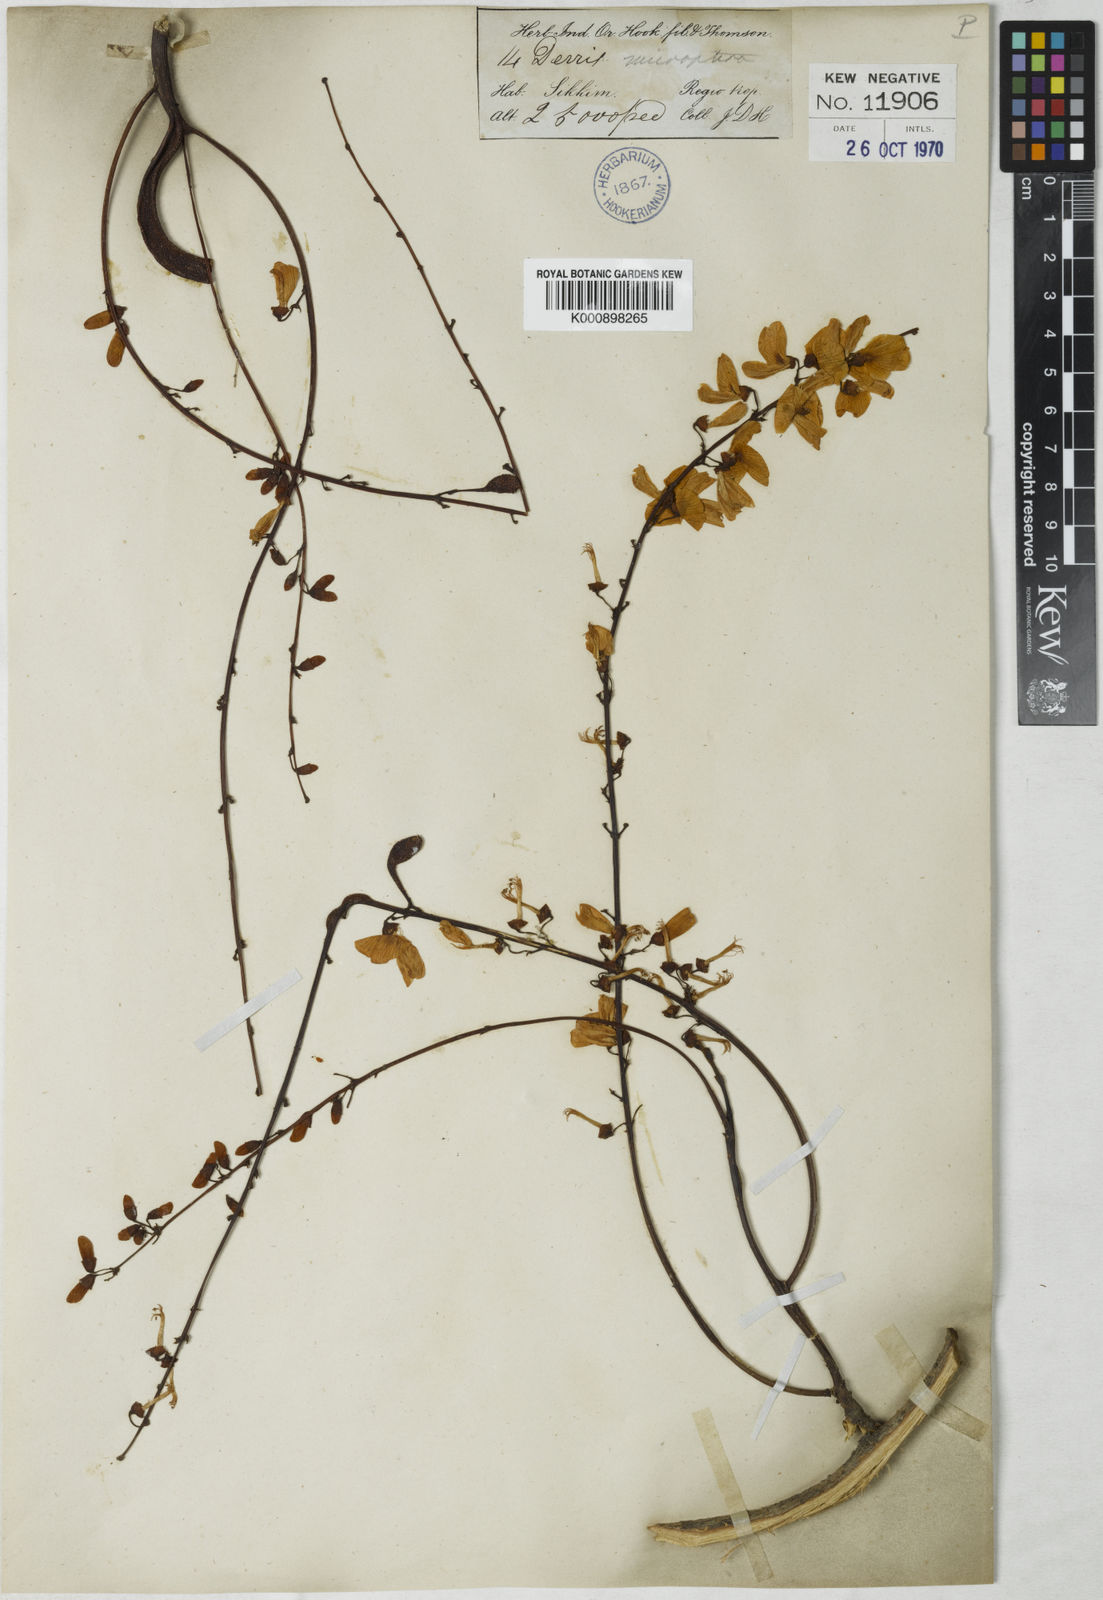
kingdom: Plantae
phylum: Tracheophyta
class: Magnoliopsida
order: Fabales
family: Fabaceae
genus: Derris
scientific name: Derris monticola
